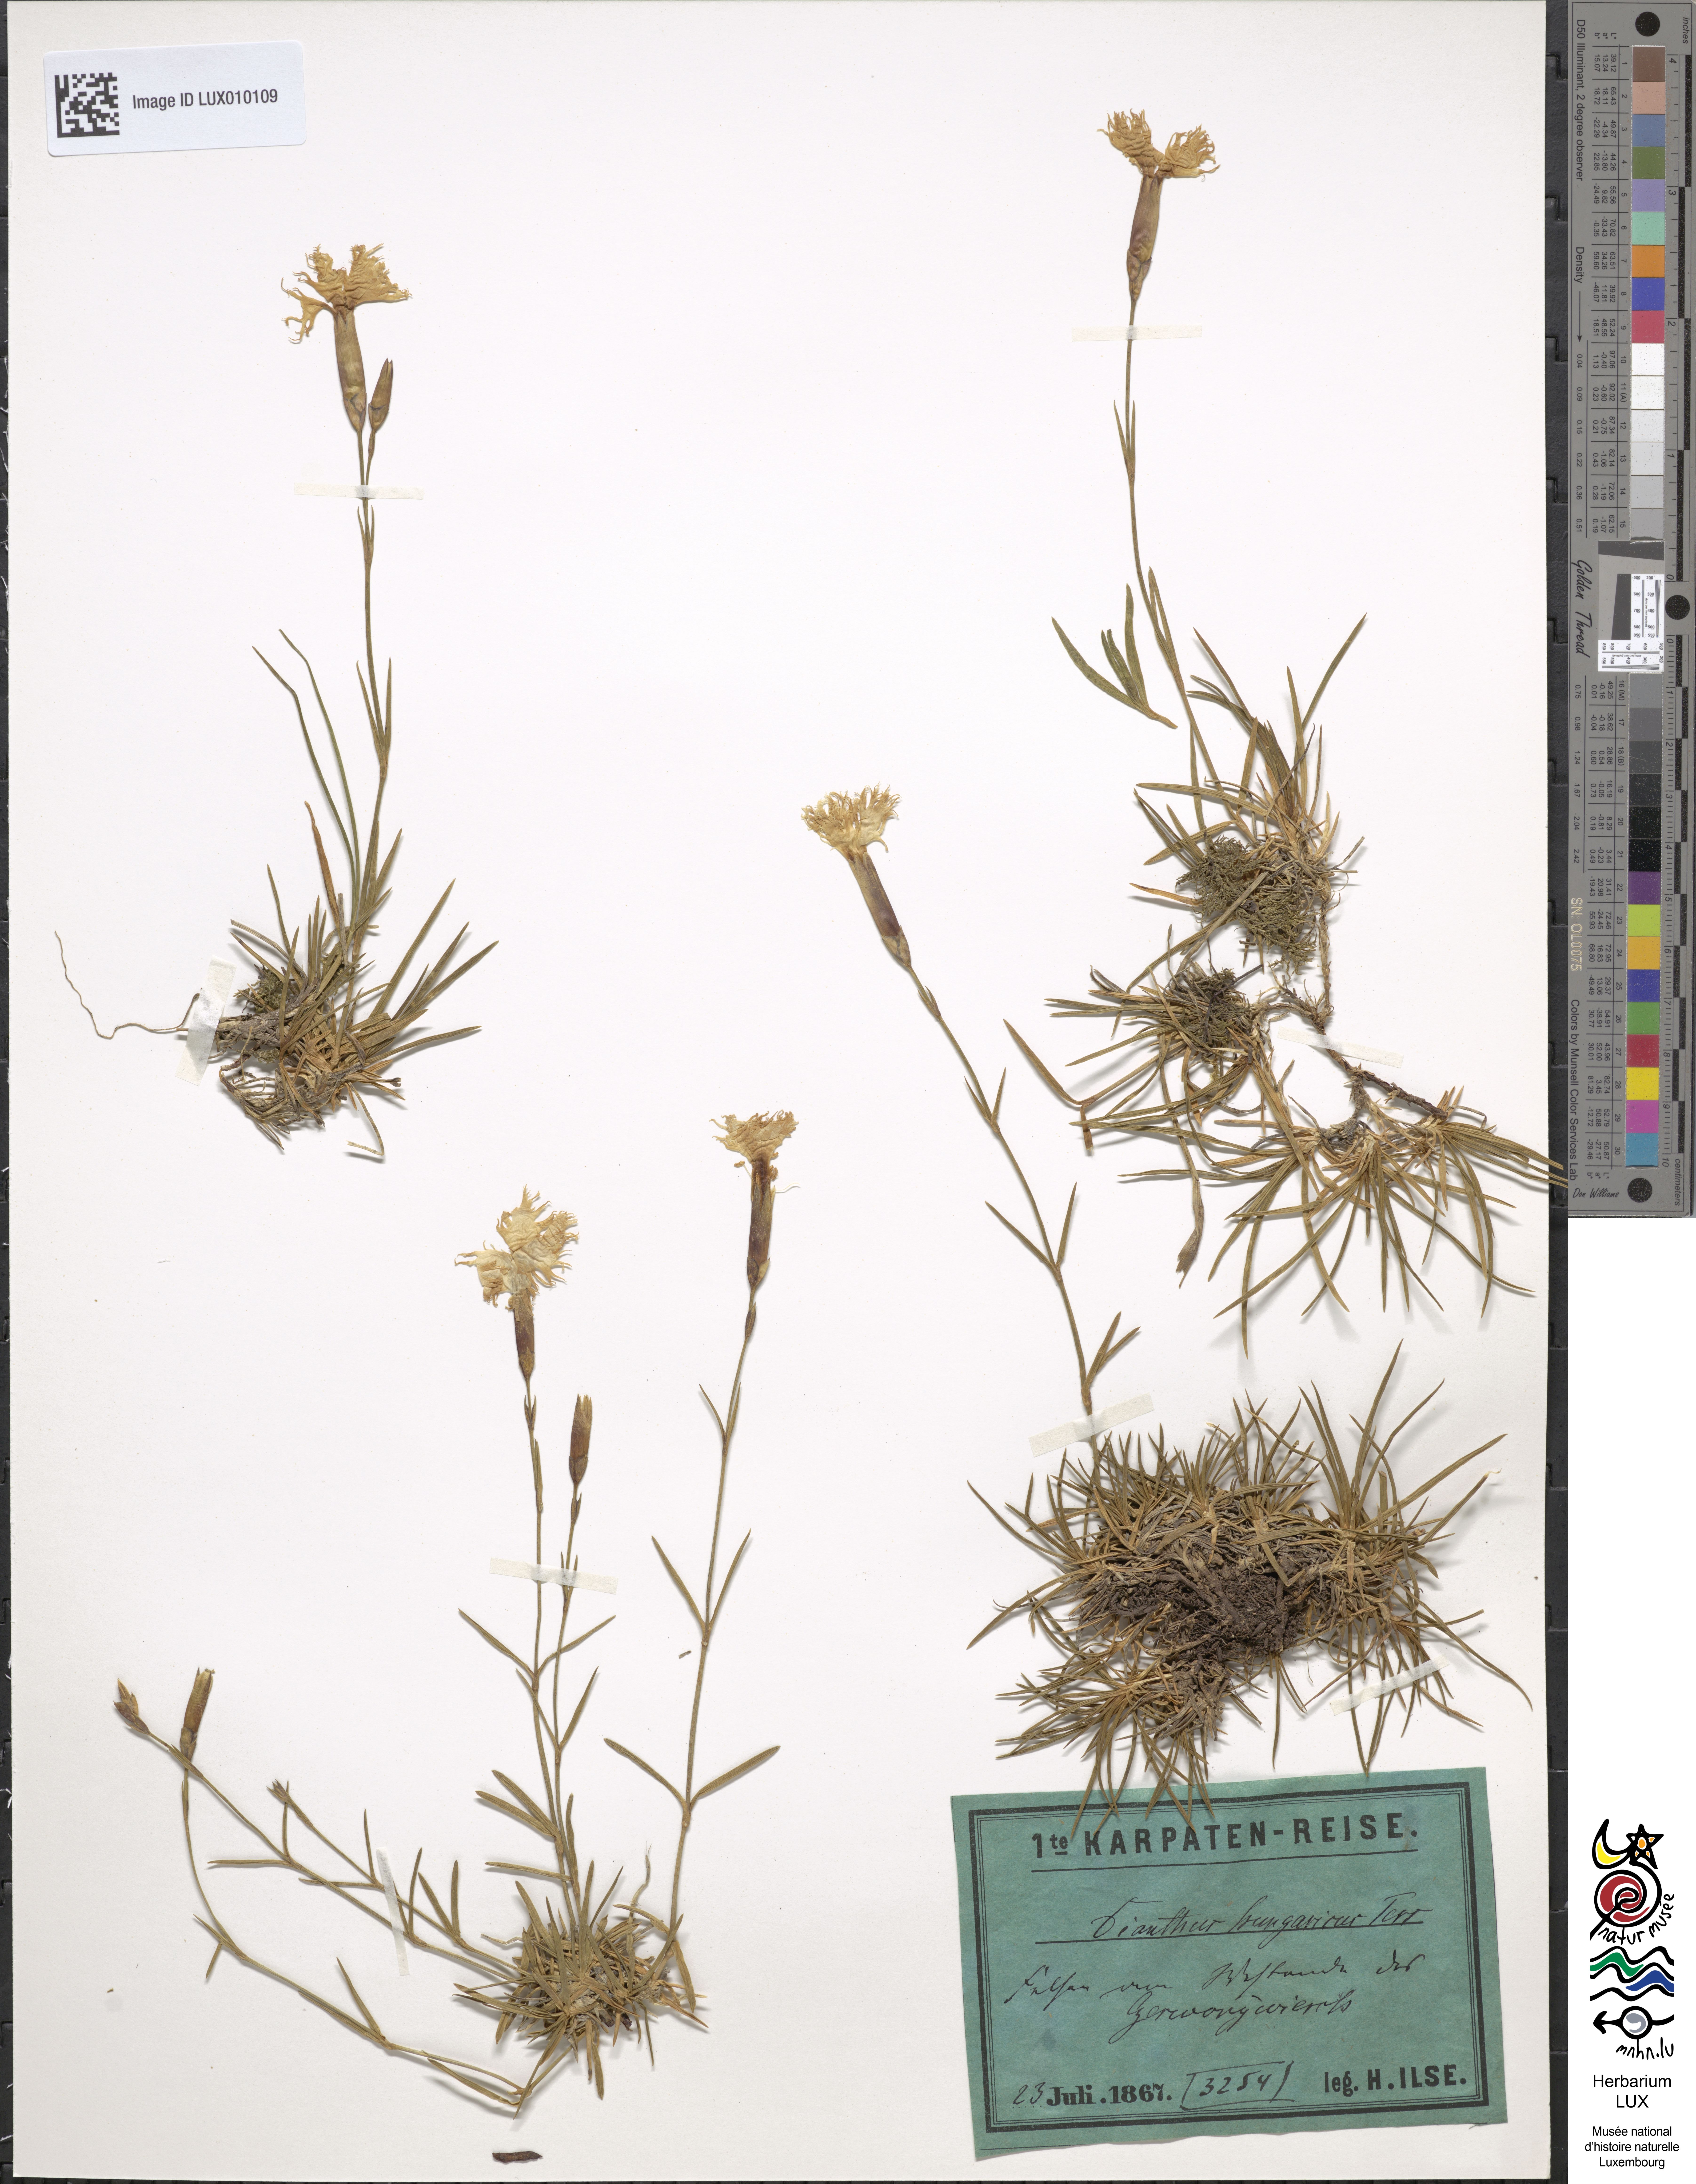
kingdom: Plantae
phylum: Tracheophyta
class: Magnoliopsida
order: Caryophyllales
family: Caryophyllaceae
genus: Dianthus
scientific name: Dianthus plumarius
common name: Pink
